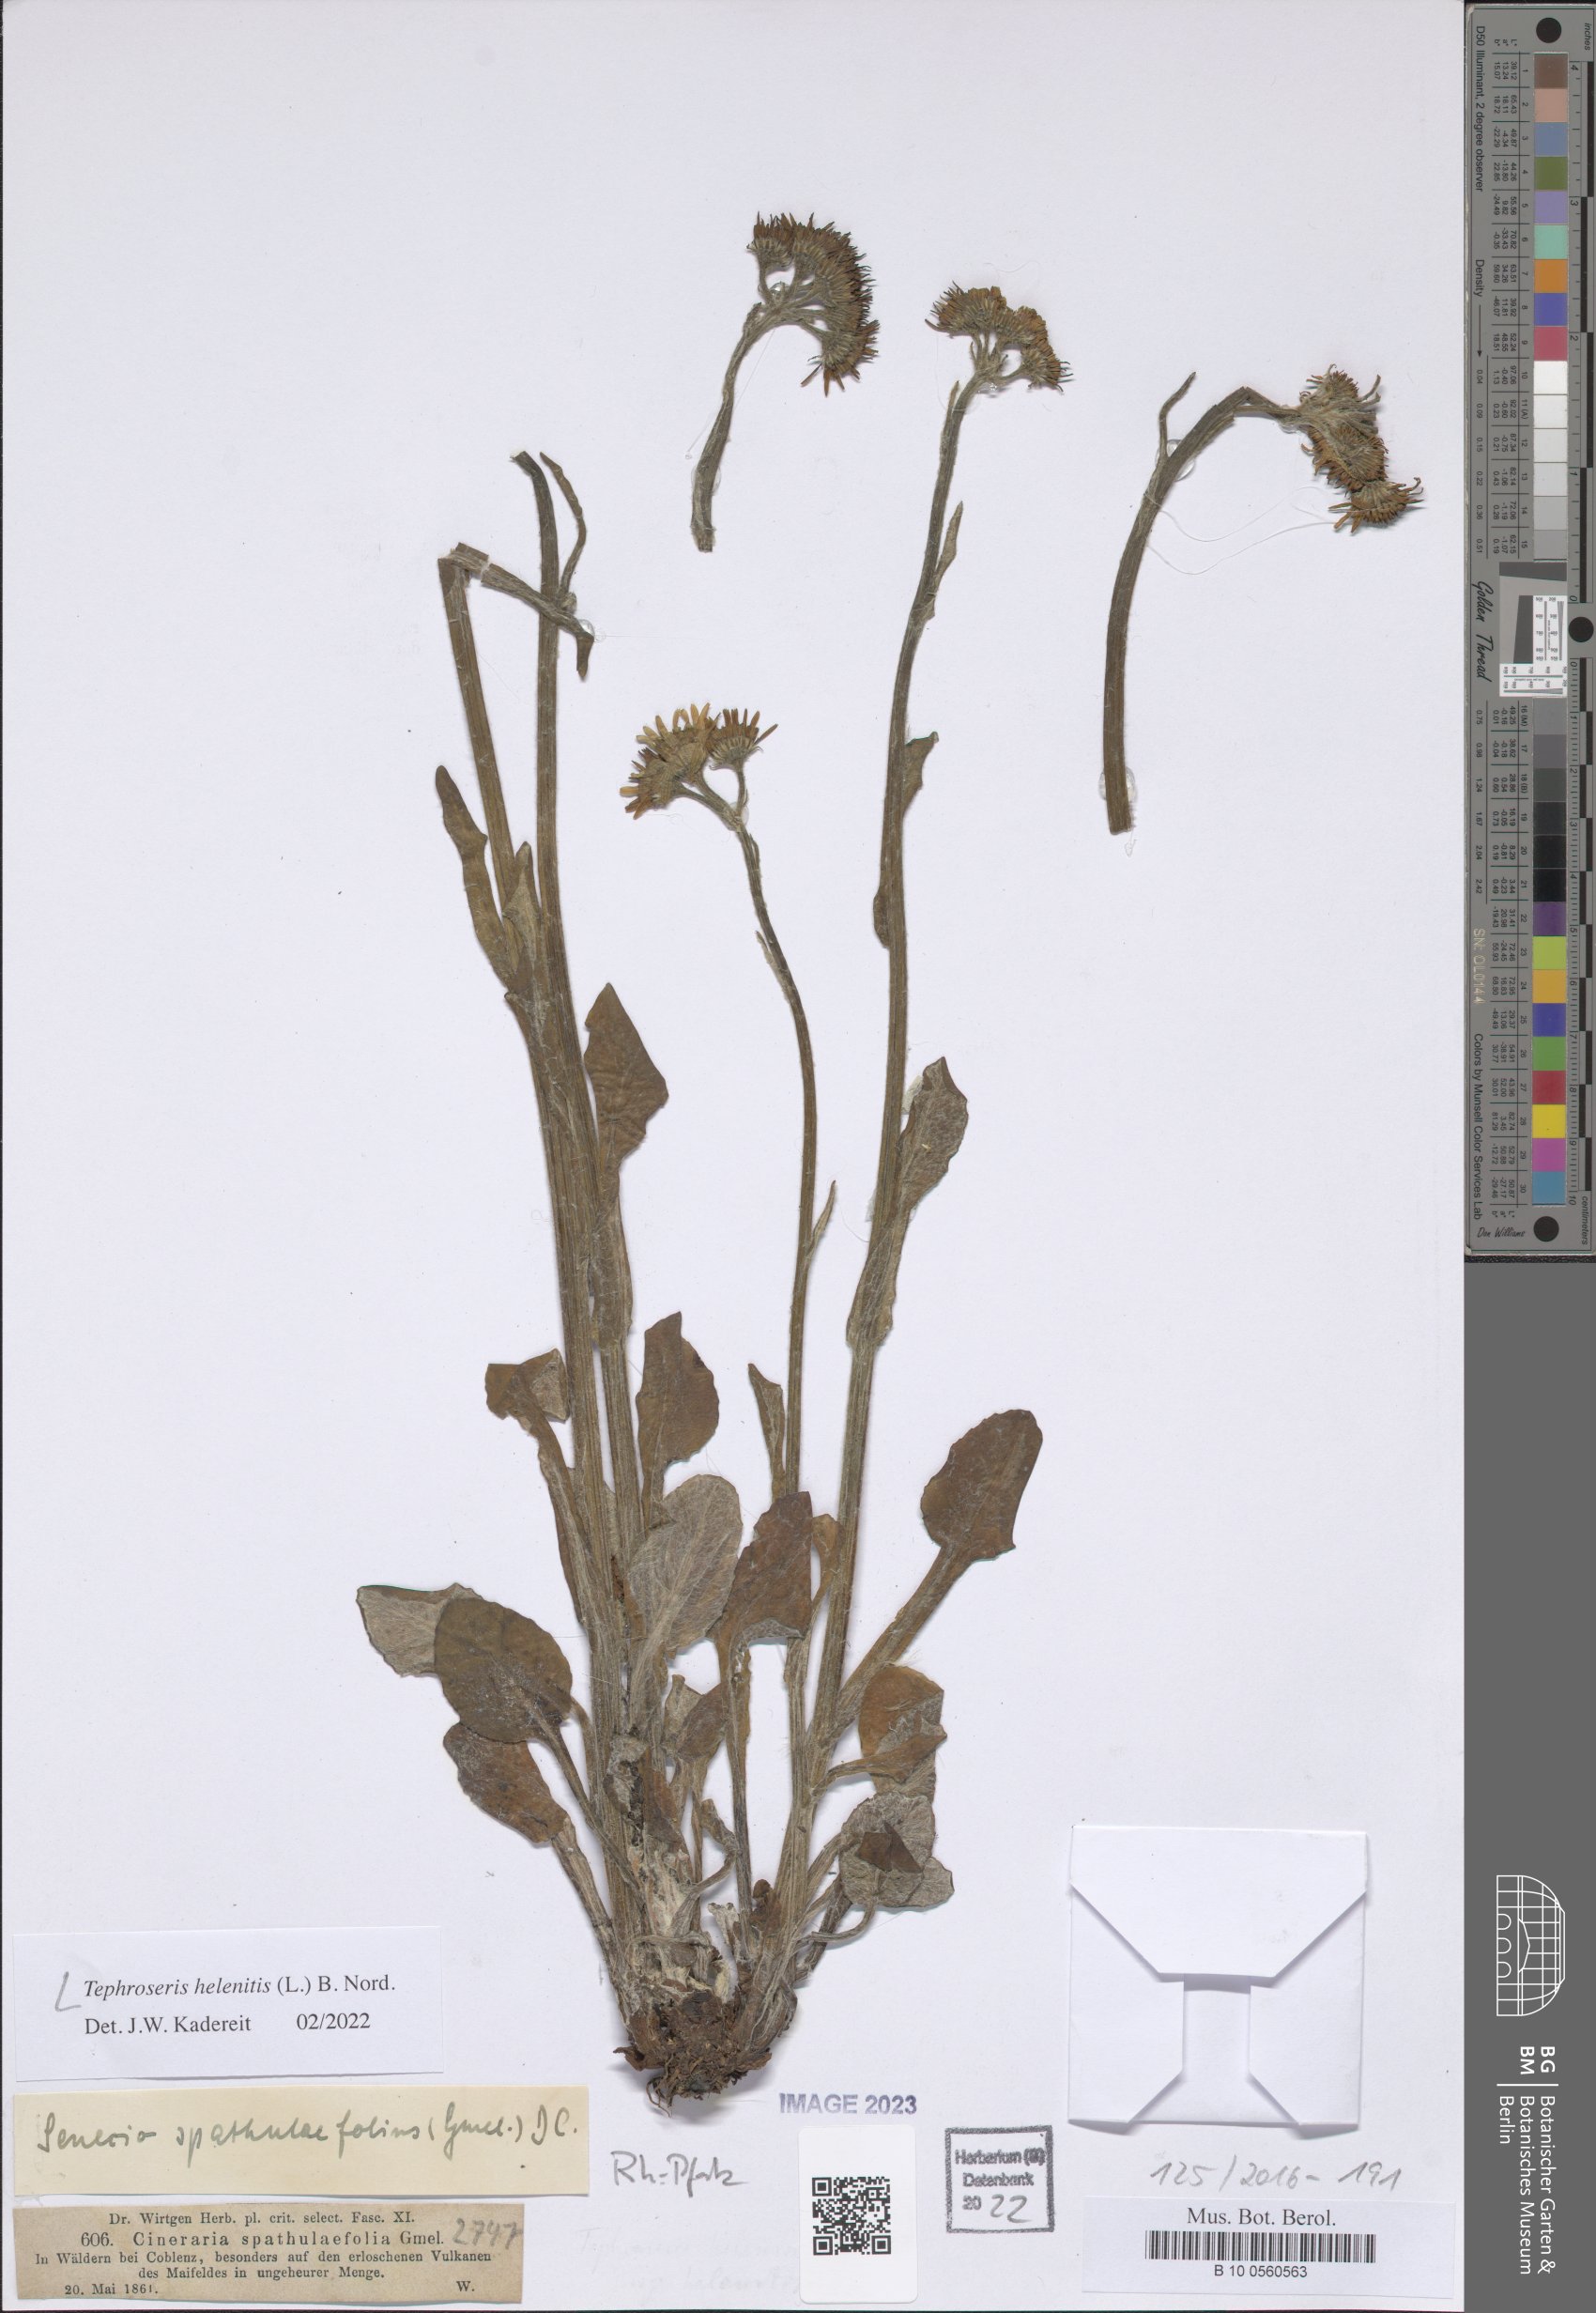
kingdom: Plantae
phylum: Tracheophyta
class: Magnoliopsida
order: Asterales
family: Asteraceae
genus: Tephroseris
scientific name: Tephroseris helenitis
